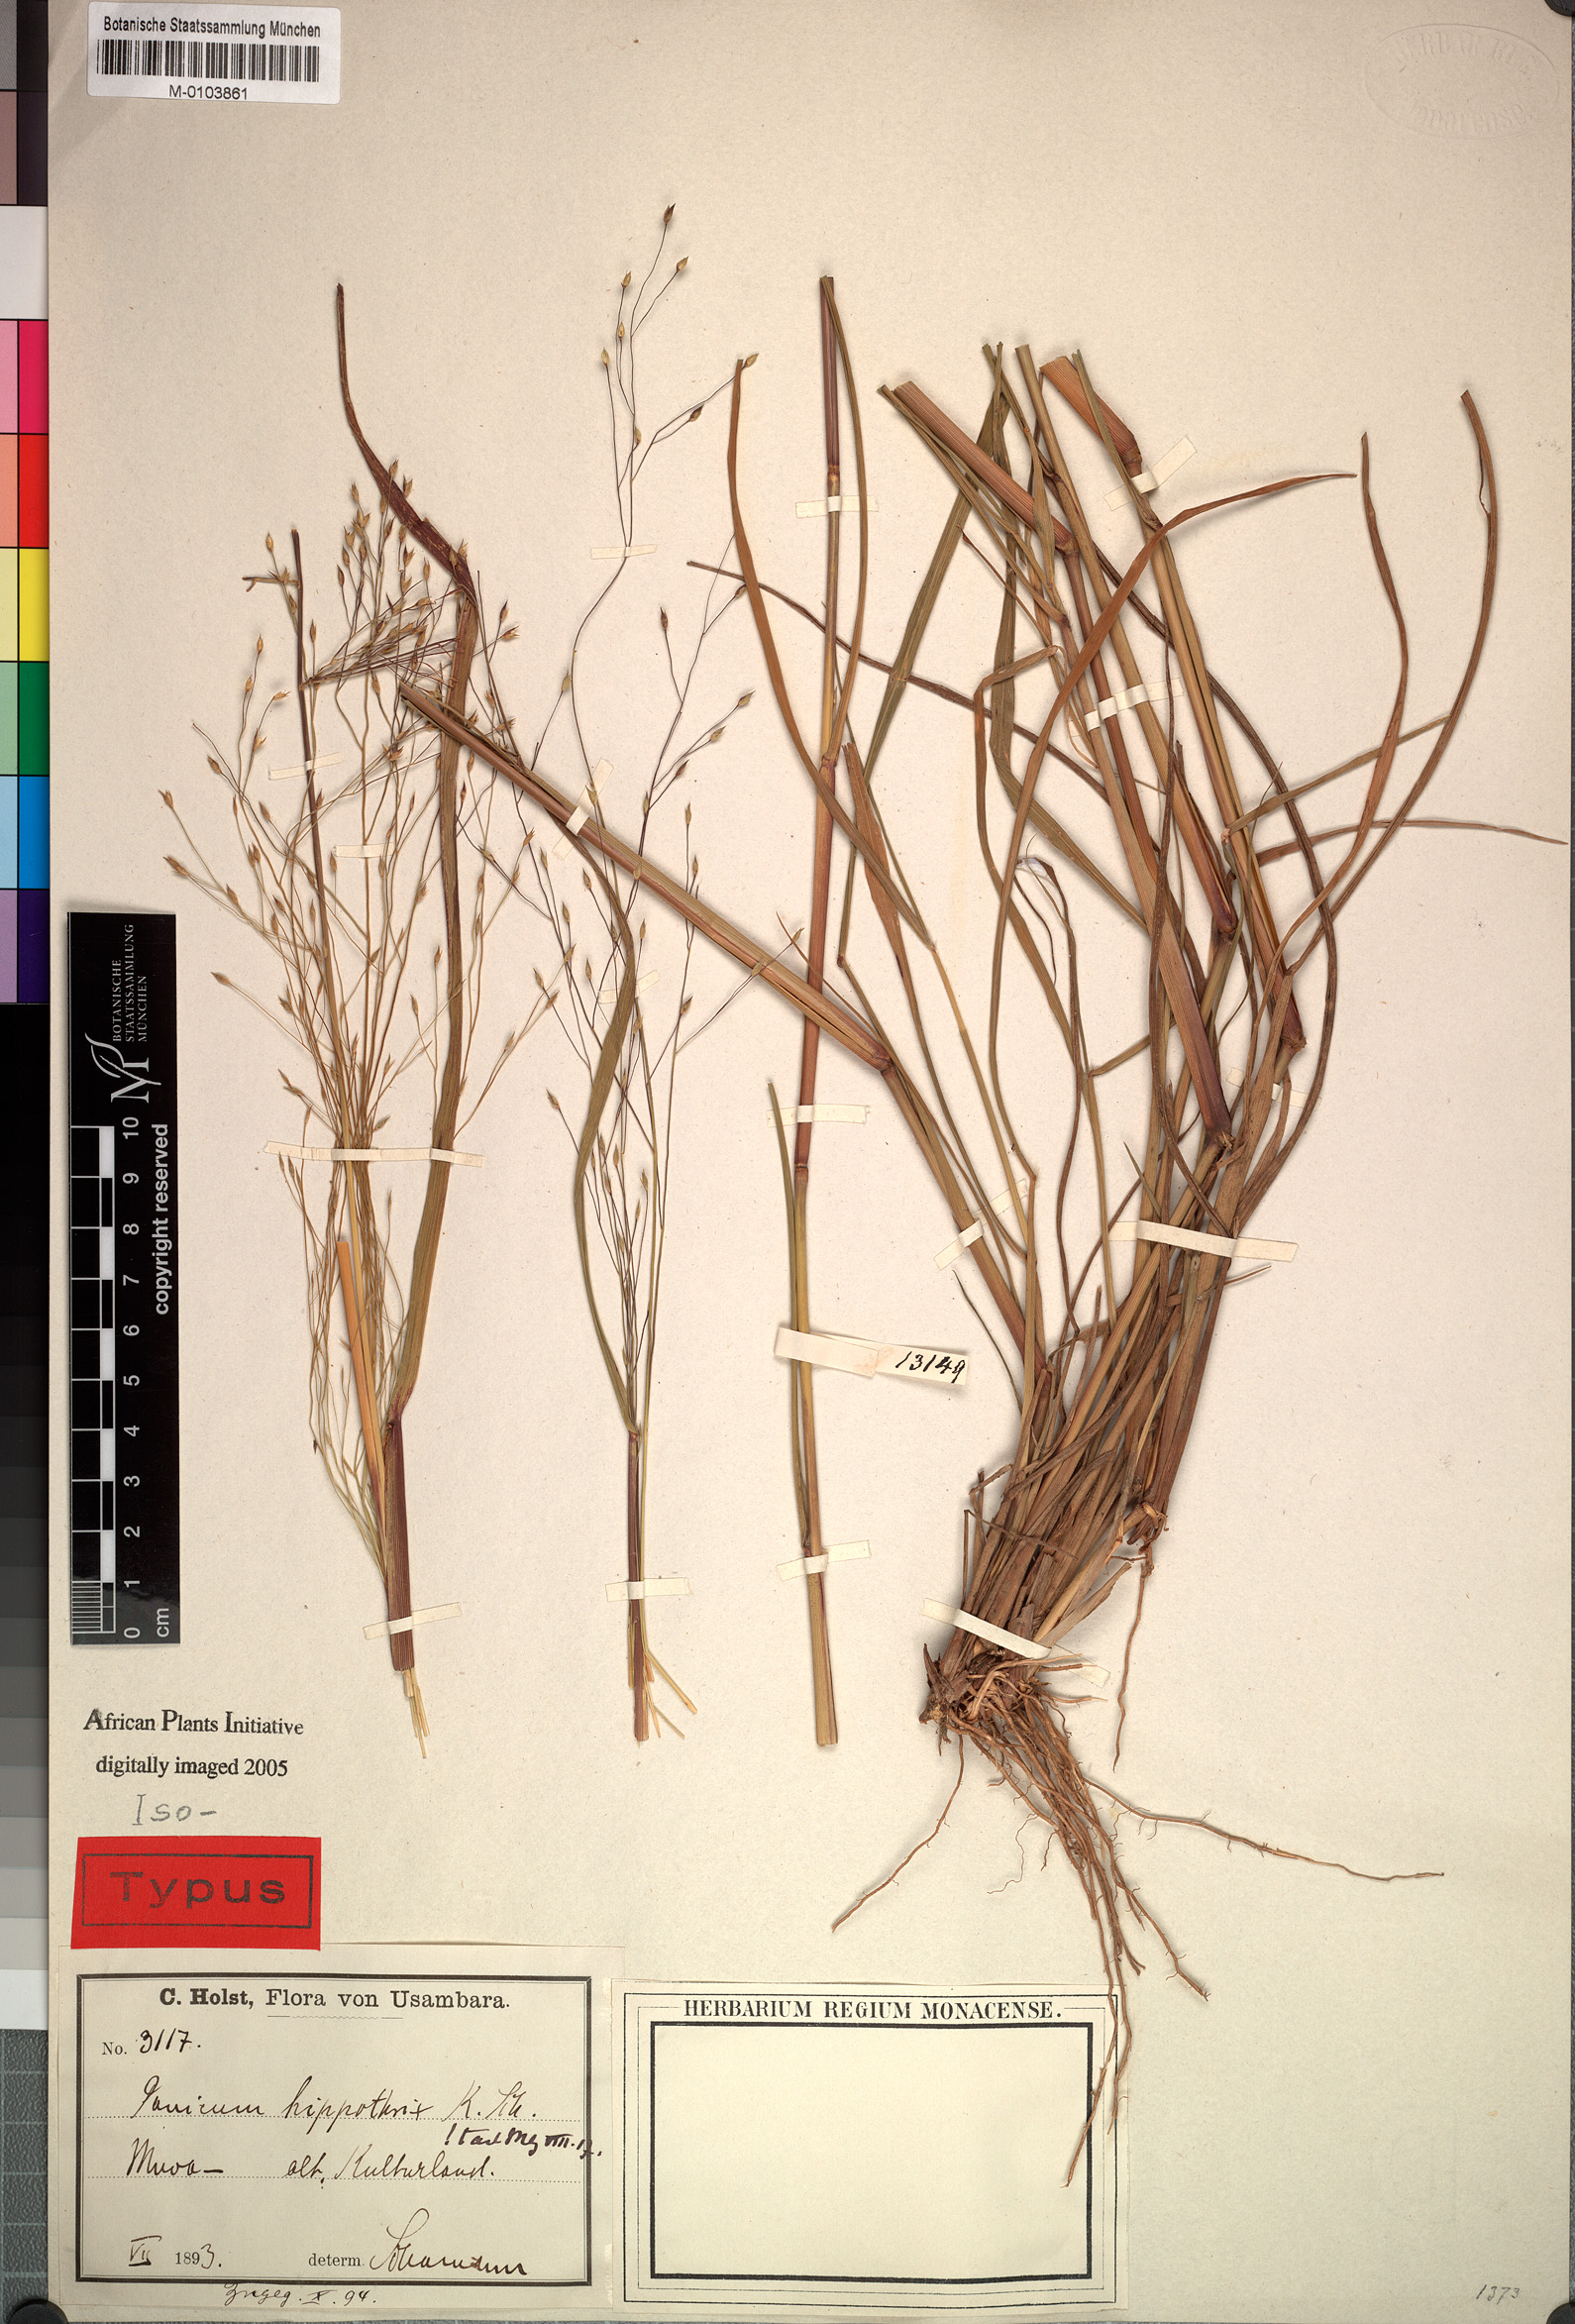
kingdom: Plantae
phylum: Tracheophyta
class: Liliopsida
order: Poales
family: Poaceae
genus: Panicum
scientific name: Panicum hippothrix
